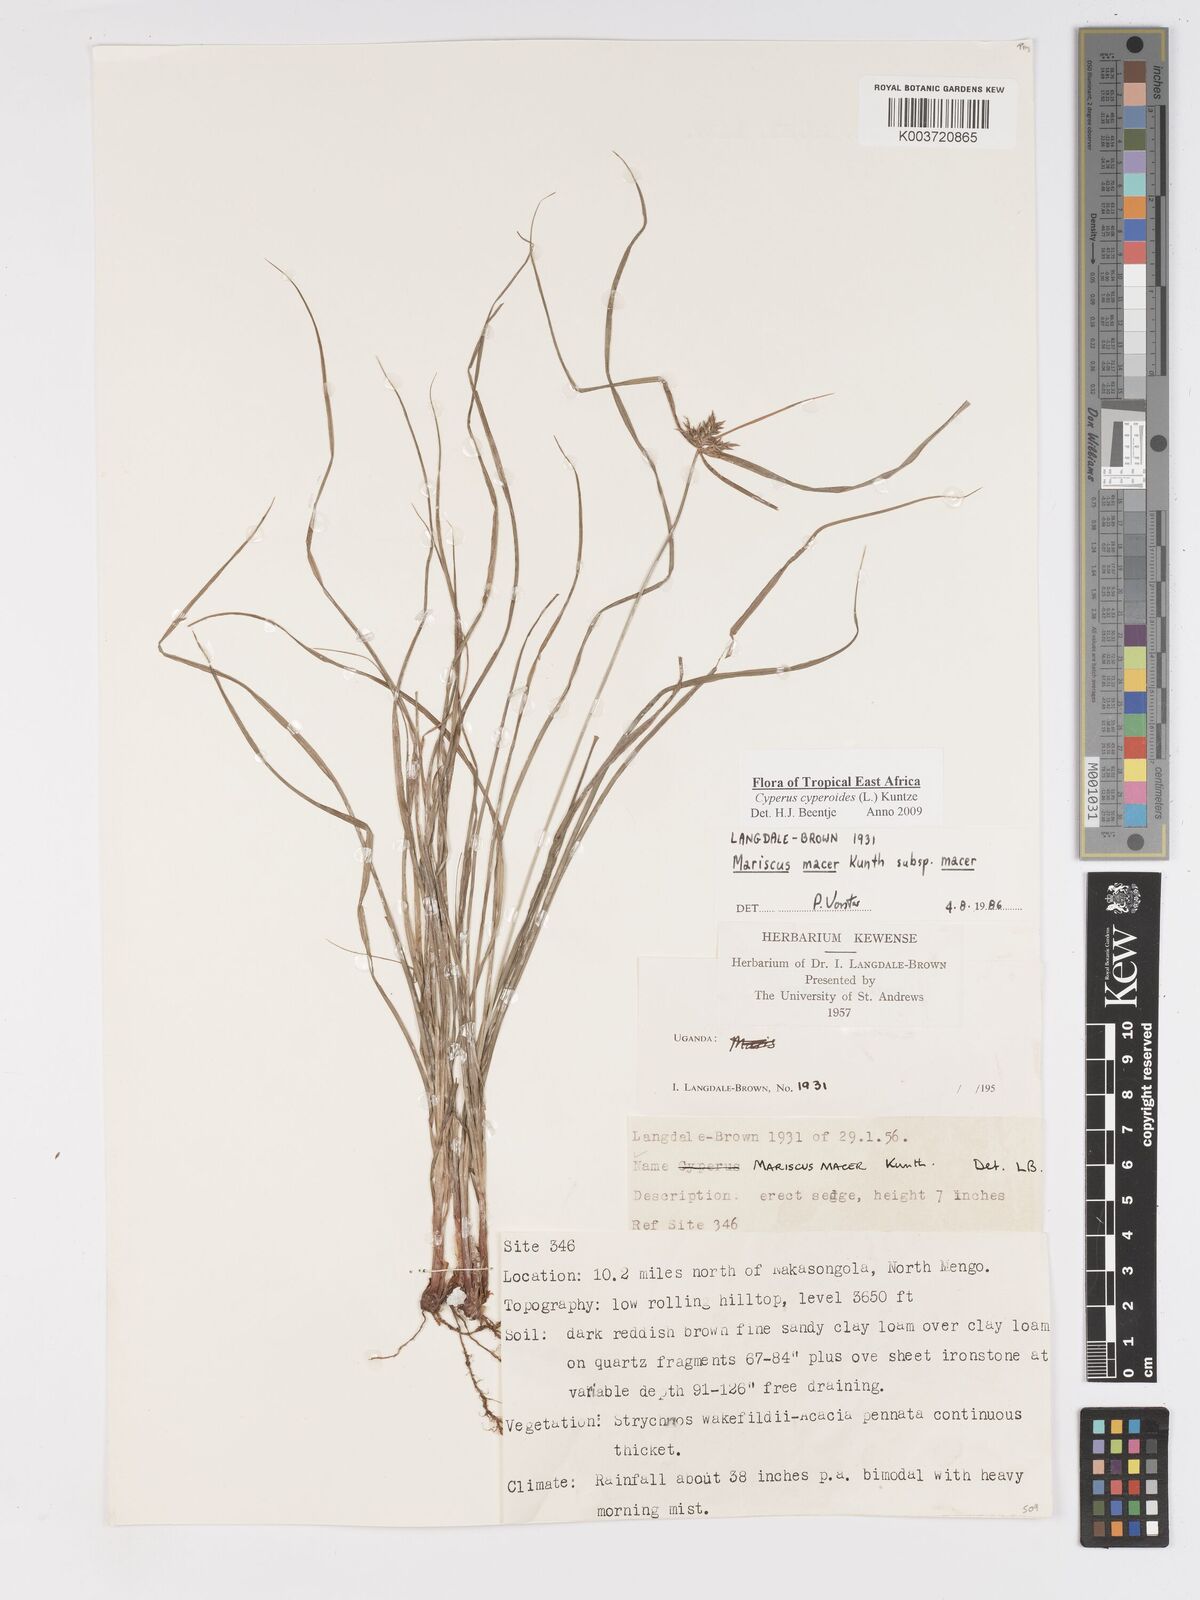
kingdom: Plantae
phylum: Tracheophyta
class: Liliopsida
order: Poales
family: Cyperaceae
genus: Cyperus
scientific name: Cyperus macrocarpus
